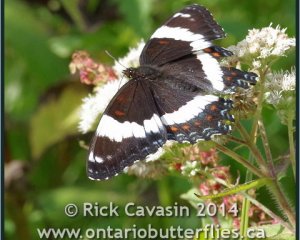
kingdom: Animalia
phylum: Arthropoda
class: Insecta
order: Lepidoptera
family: Nymphalidae
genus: Limenitis
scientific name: Limenitis arthemis
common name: Red-spotted Admiral
